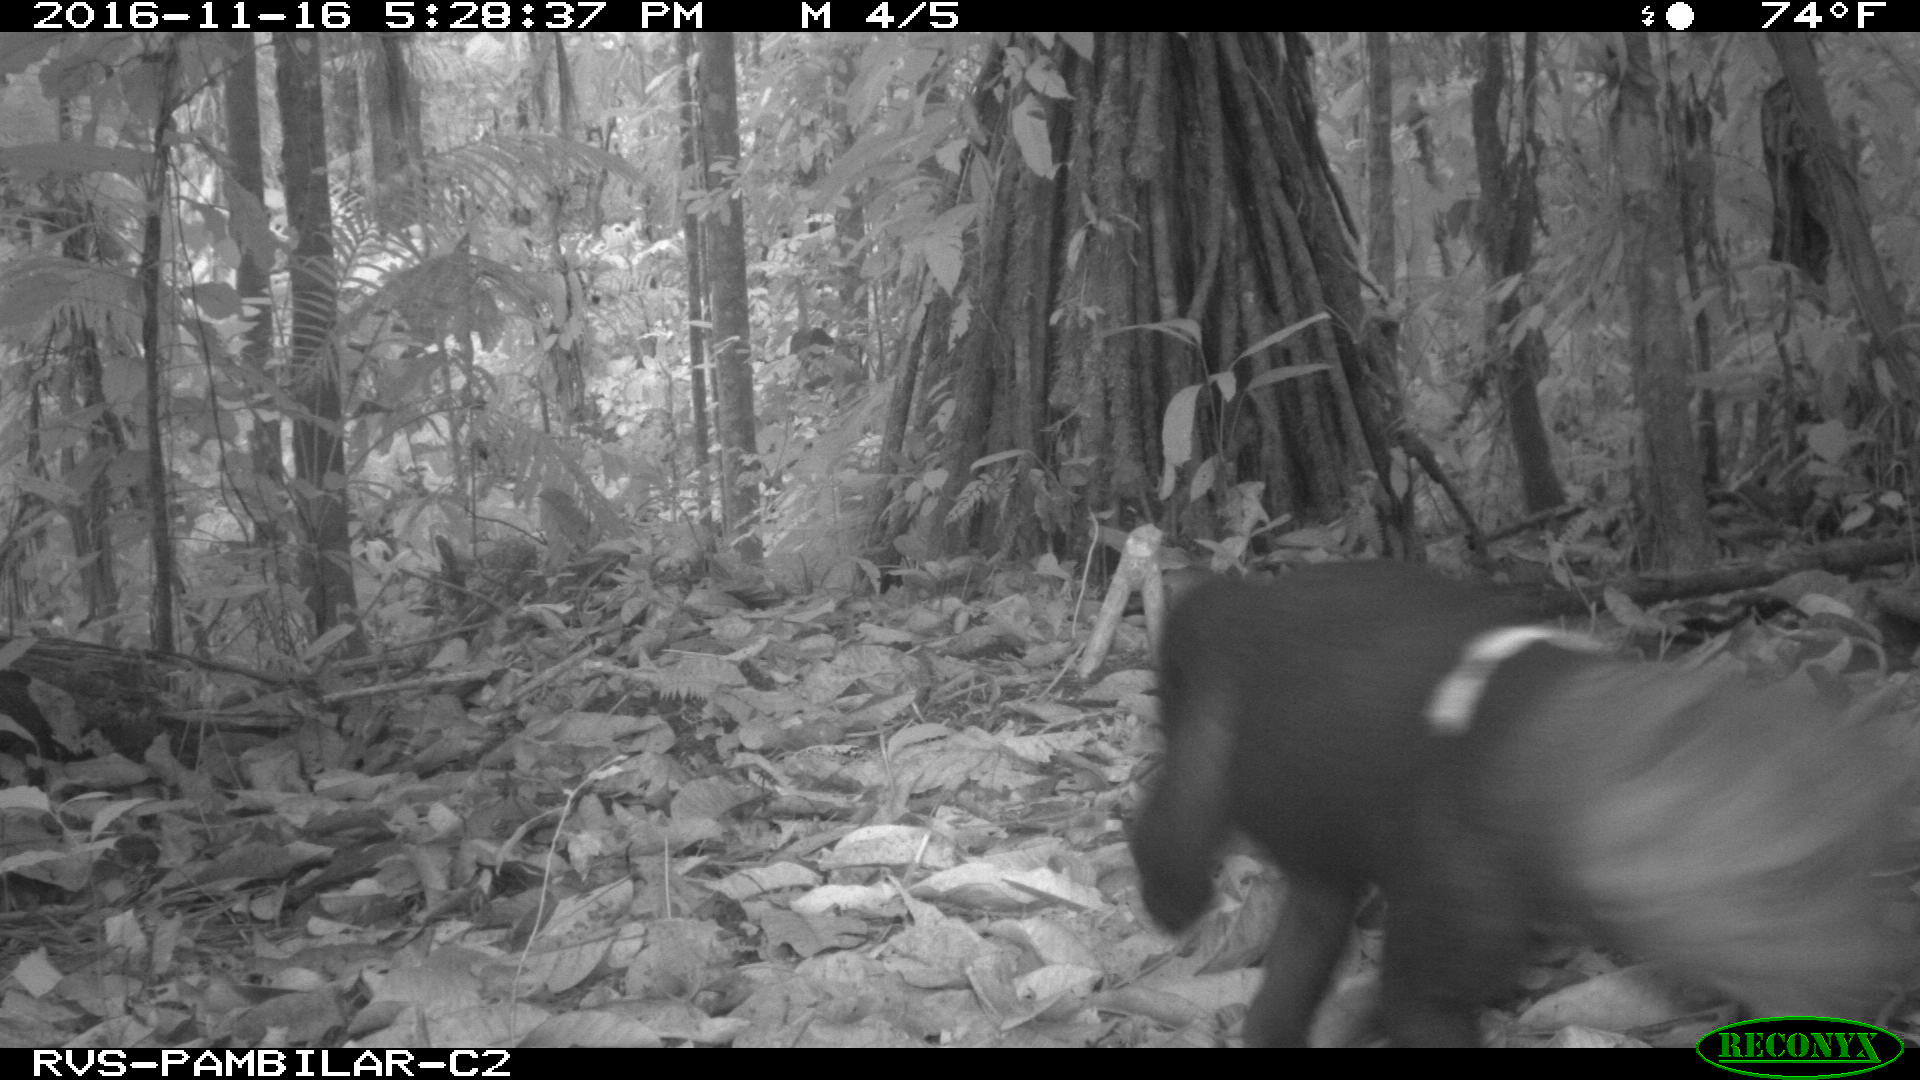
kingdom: Animalia
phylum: Chordata
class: Mammalia
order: Carnivora
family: Mustelidae
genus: Eira
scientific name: Eira barbara
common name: Tayra
